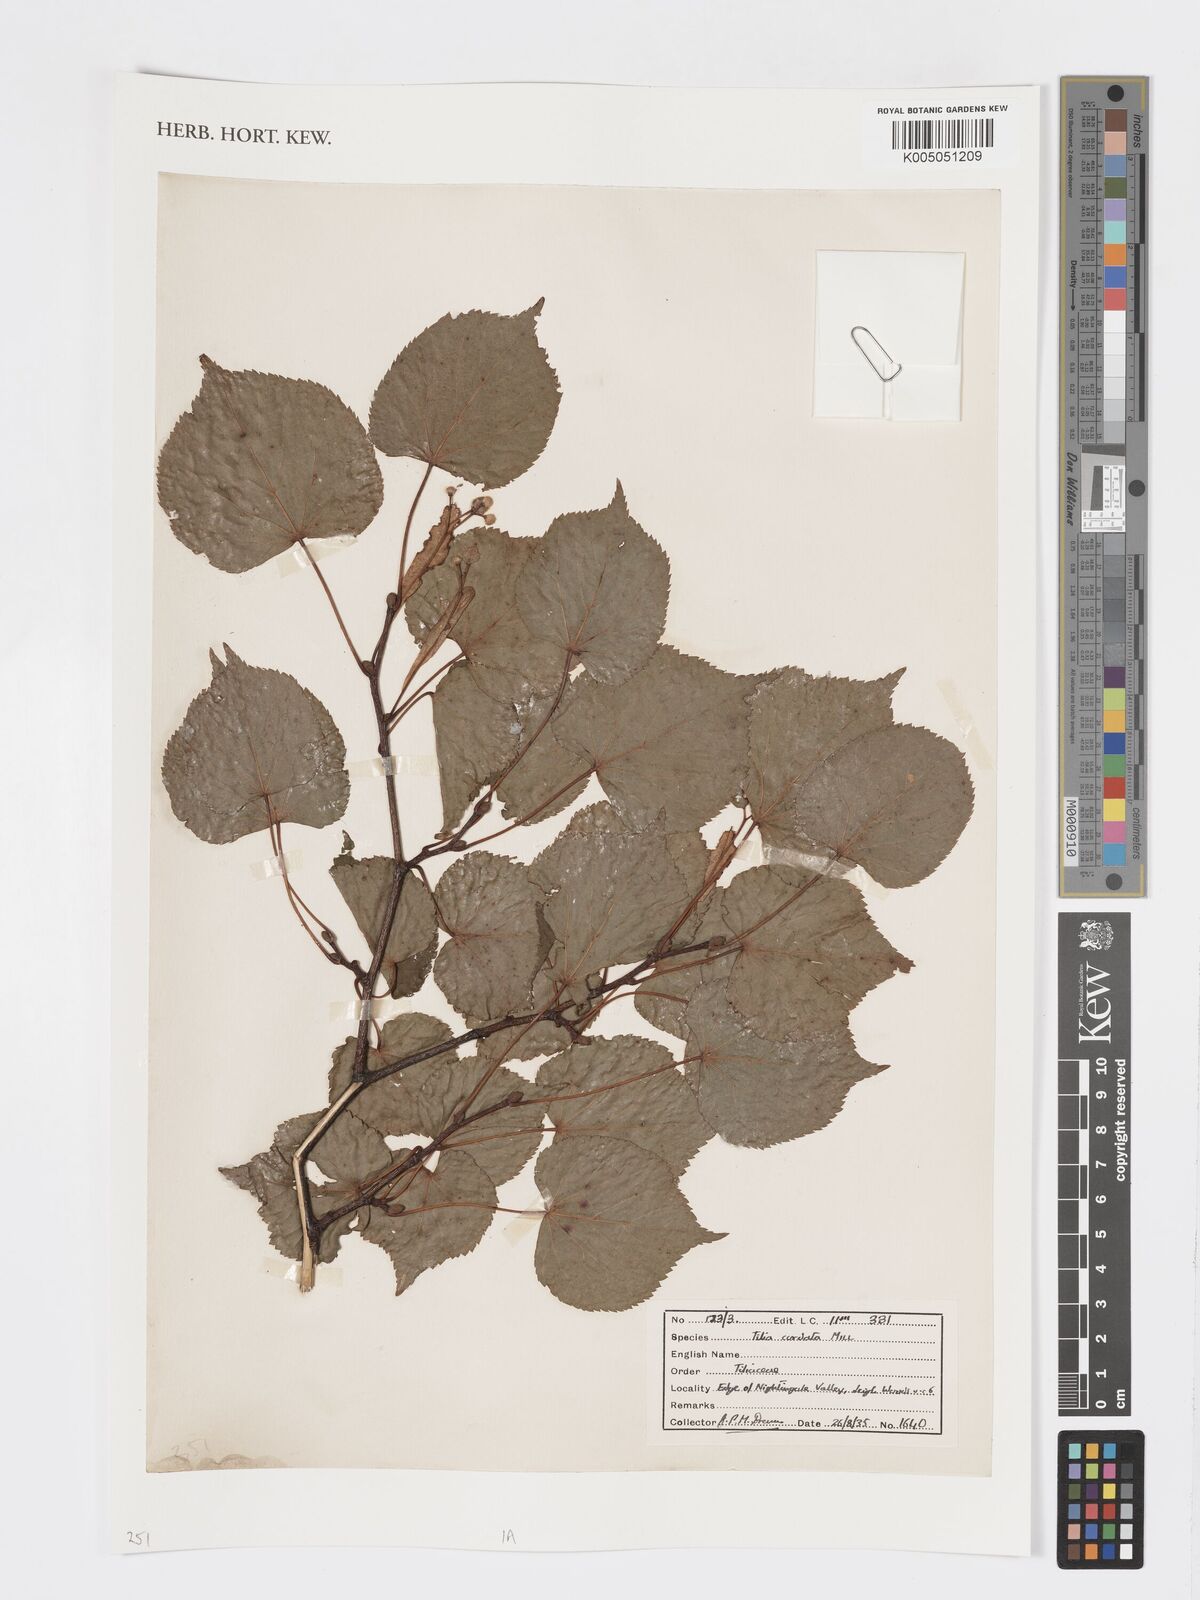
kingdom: Plantae
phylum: Tracheophyta
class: Magnoliopsida
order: Malvales
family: Malvaceae
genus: Tilia
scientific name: Tilia cordata
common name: Small-leaved lime
